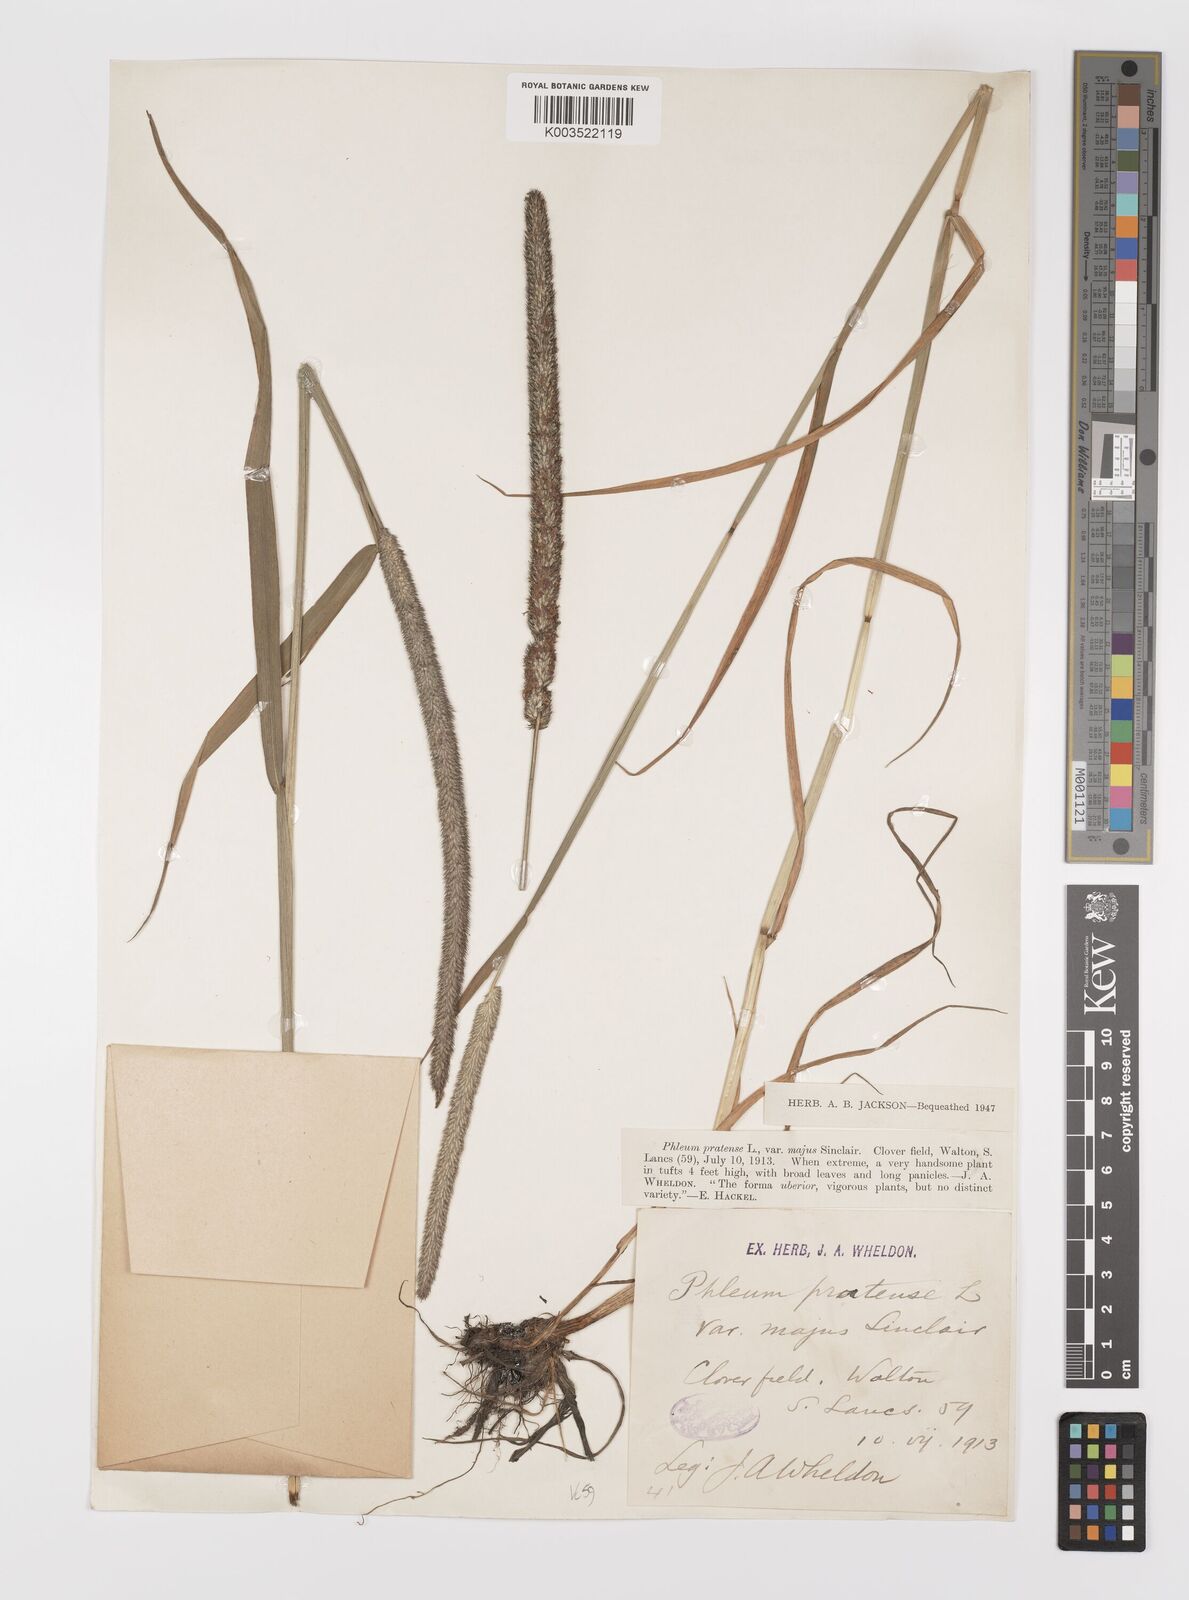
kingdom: Plantae
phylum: Tracheophyta
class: Liliopsida
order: Poales
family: Poaceae
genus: Phleum
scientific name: Phleum pratense
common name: Timothy grass
